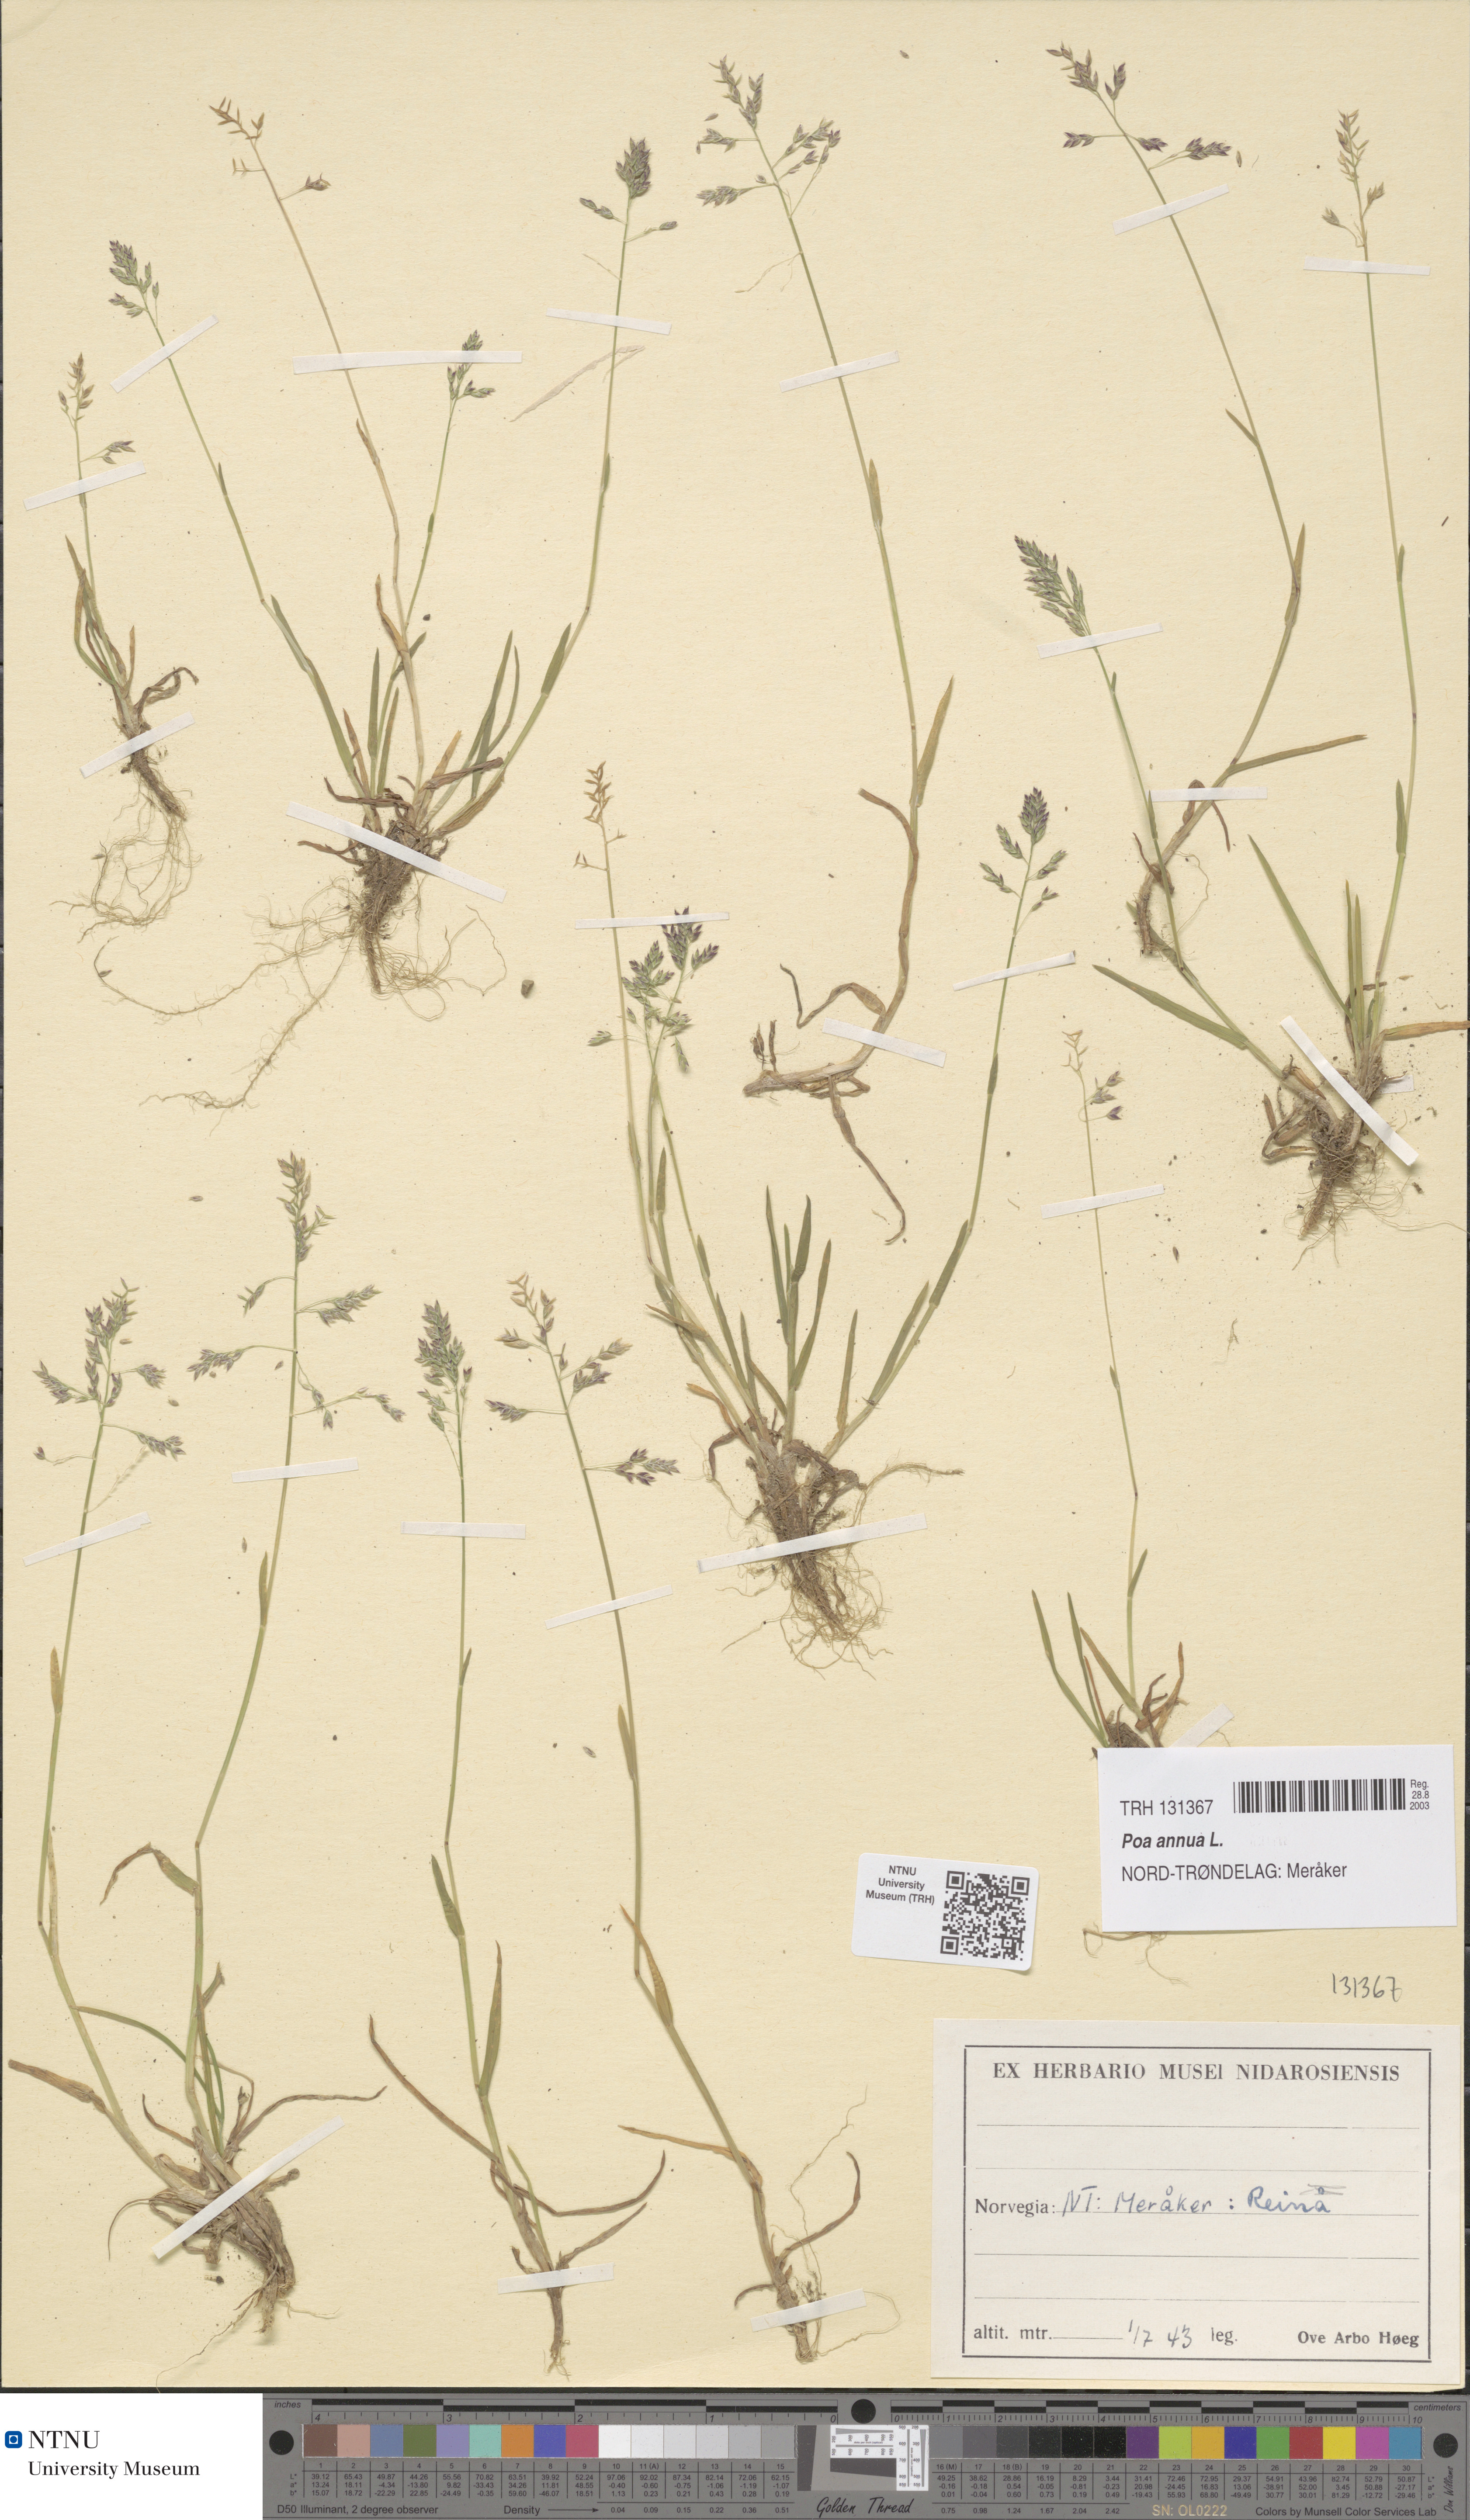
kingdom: Plantae
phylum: Tracheophyta
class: Liliopsida
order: Poales
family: Poaceae
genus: Poa
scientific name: Poa annua
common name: Annual bluegrass
